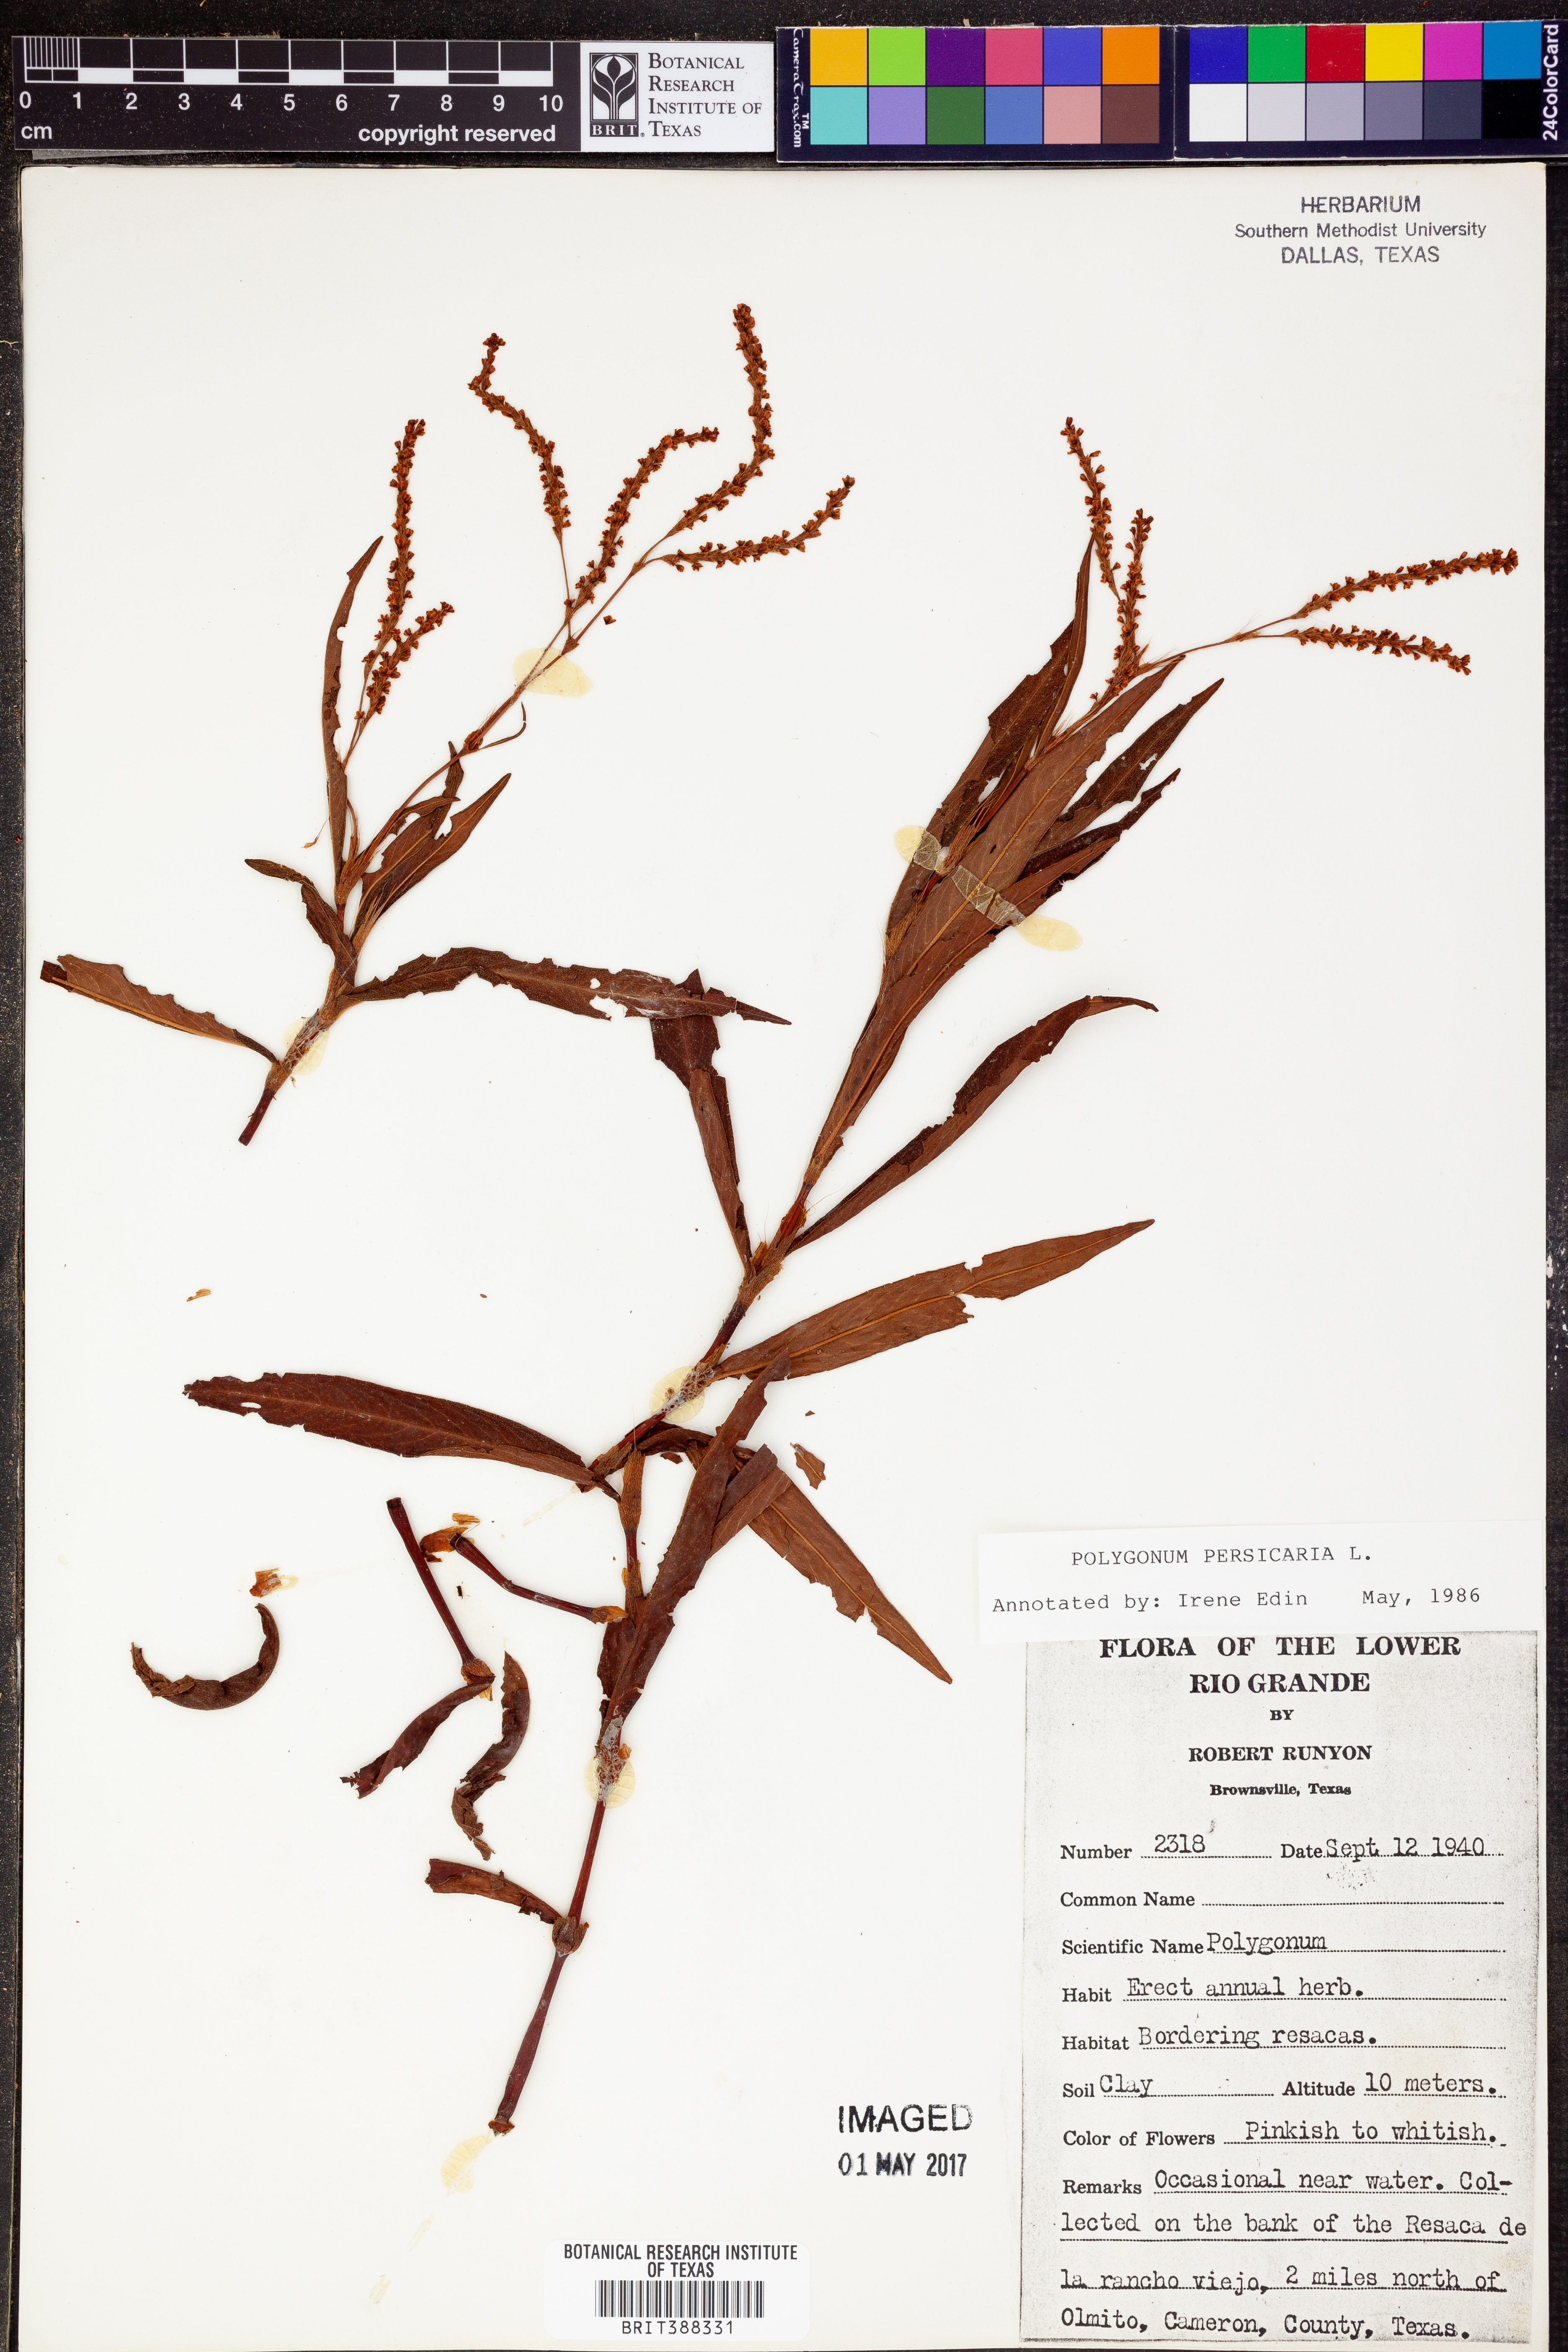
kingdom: Plantae
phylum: Tracheophyta
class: Magnoliopsida
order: Caryophyllales
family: Polygonaceae
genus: Persicaria
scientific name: Persicaria maculosa
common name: Redshank
